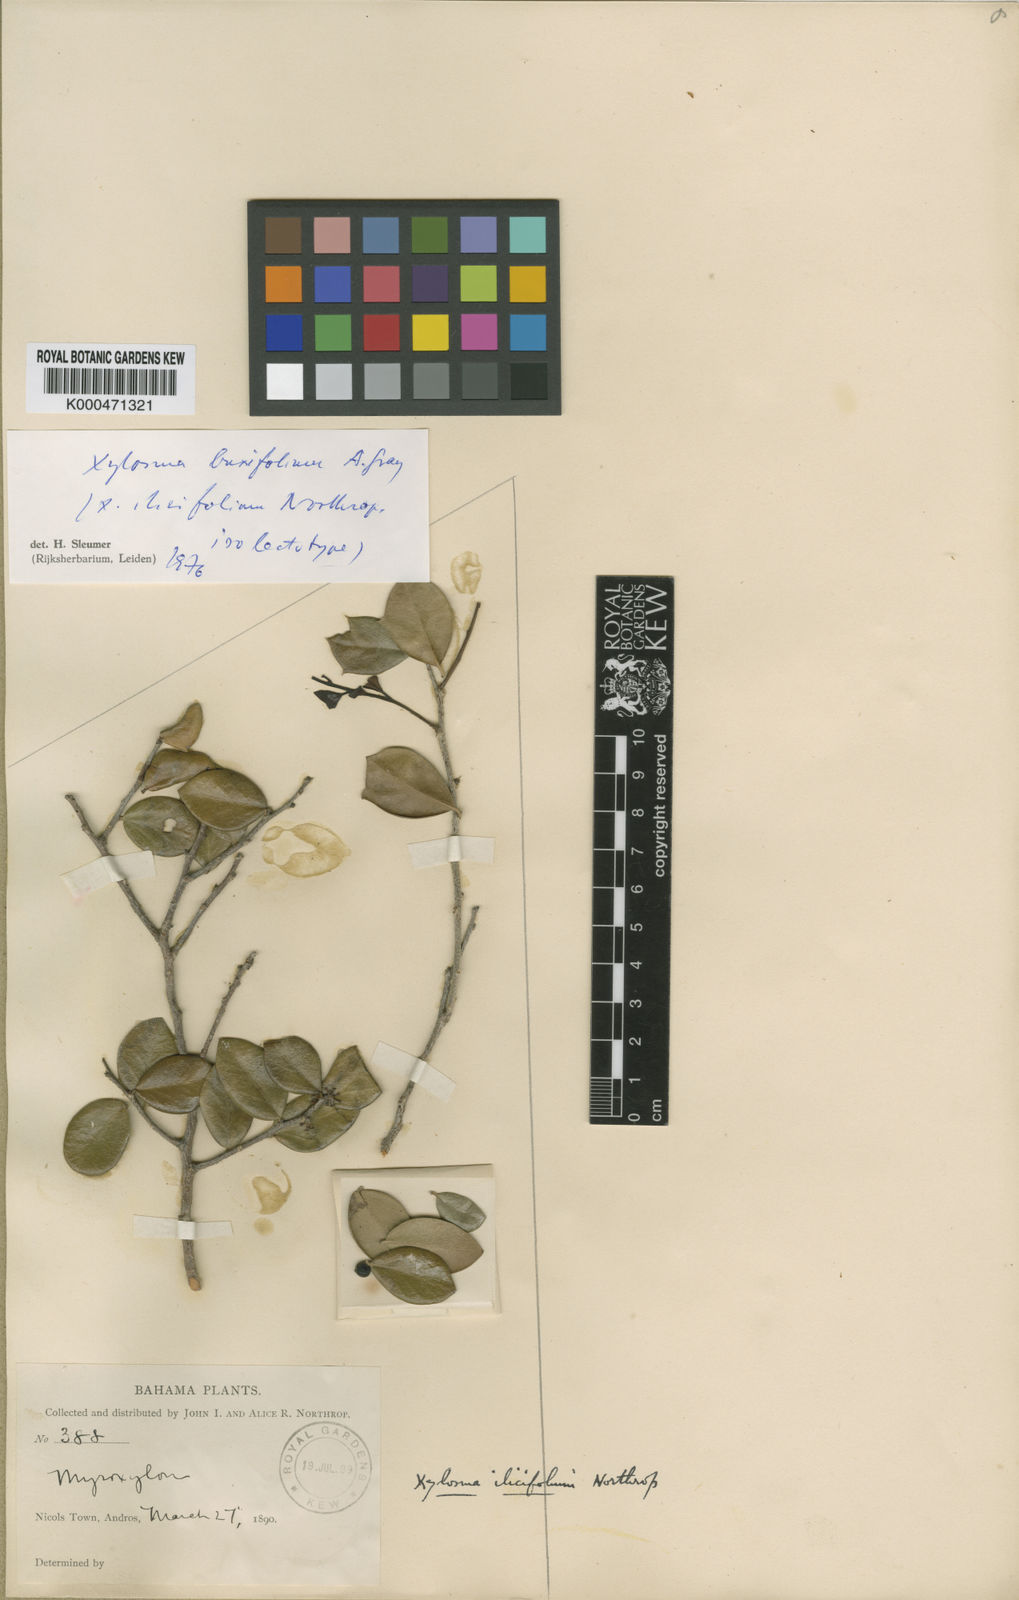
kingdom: Plantae
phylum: Tracheophyta
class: Magnoliopsida
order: Malpighiales
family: Salicaceae
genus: Xylosma
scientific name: Xylosma buxifolia
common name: Cockspur
